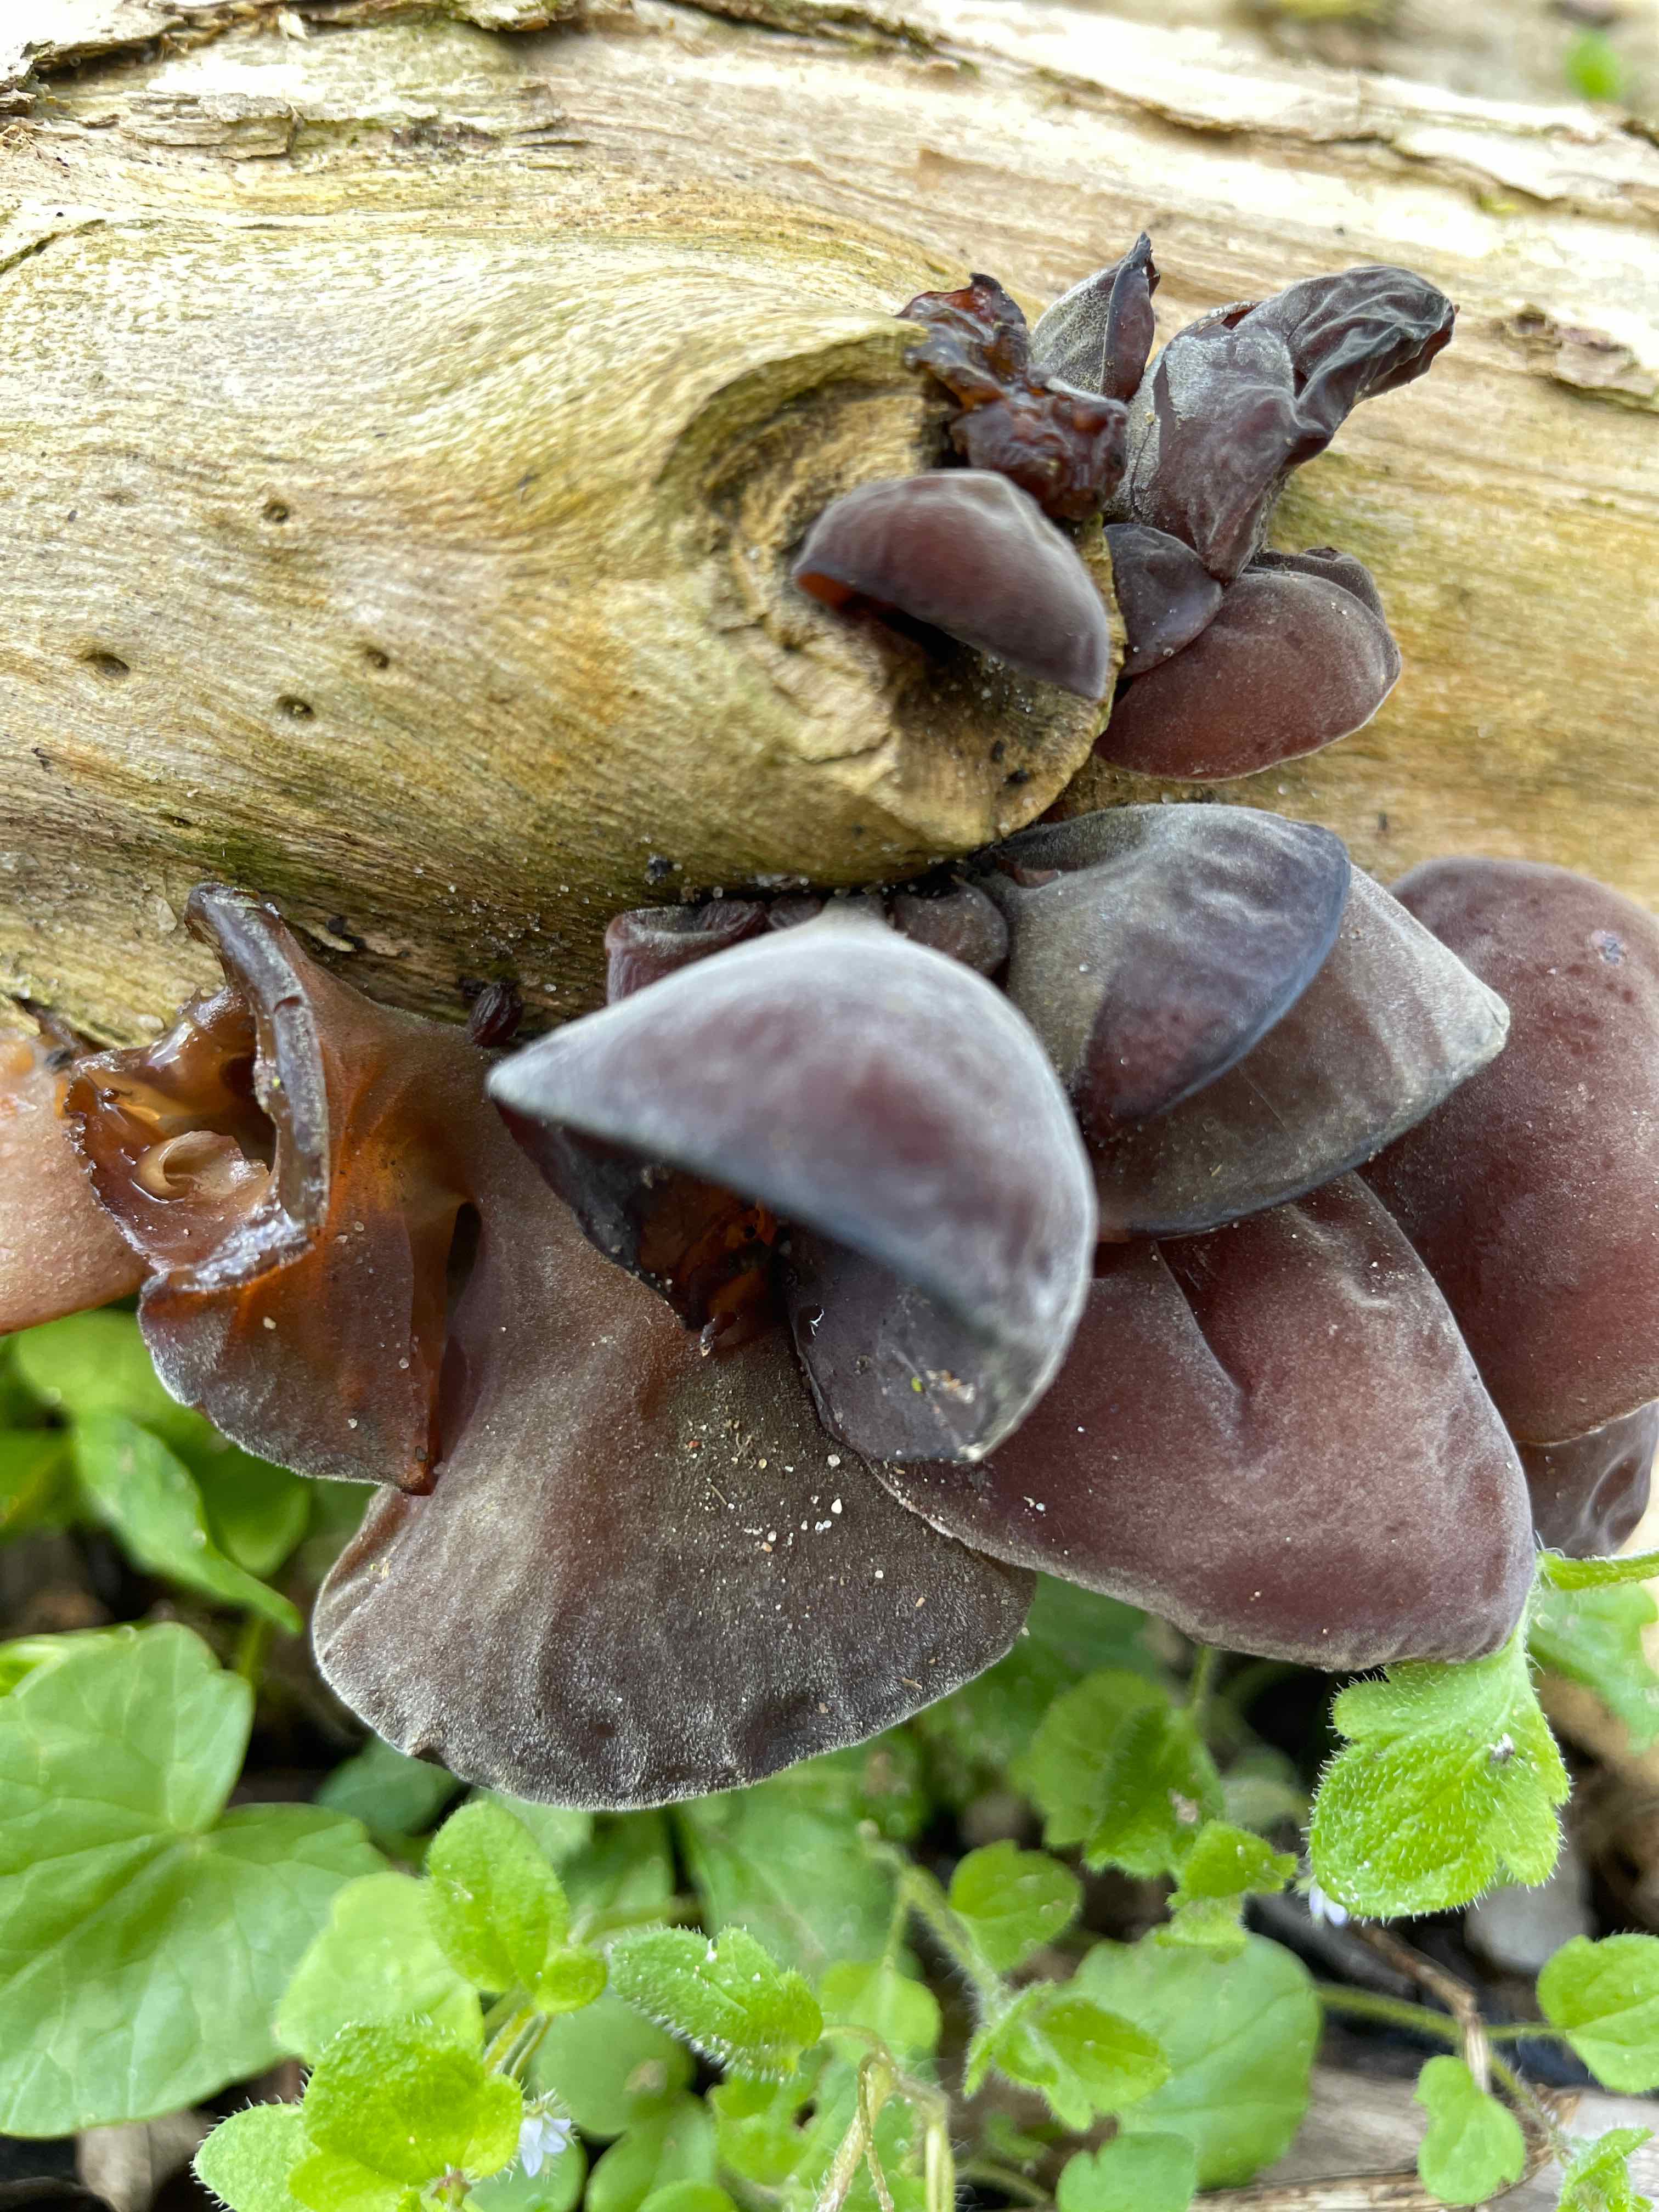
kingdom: Fungi
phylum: Basidiomycota
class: Agaricomycetes
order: Auriculariales
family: Auriculariaceae
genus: Auricularia
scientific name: Auricularia auricula-judae
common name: almindelig judasøre
